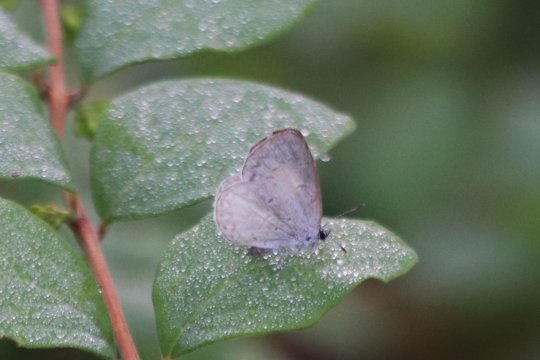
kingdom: Animalia
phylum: Arthropoda
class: Insecta
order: Lepidoptera
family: Lycaenidae
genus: Cyaniris
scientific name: Cyaniris neglecta
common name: Summer Azure
